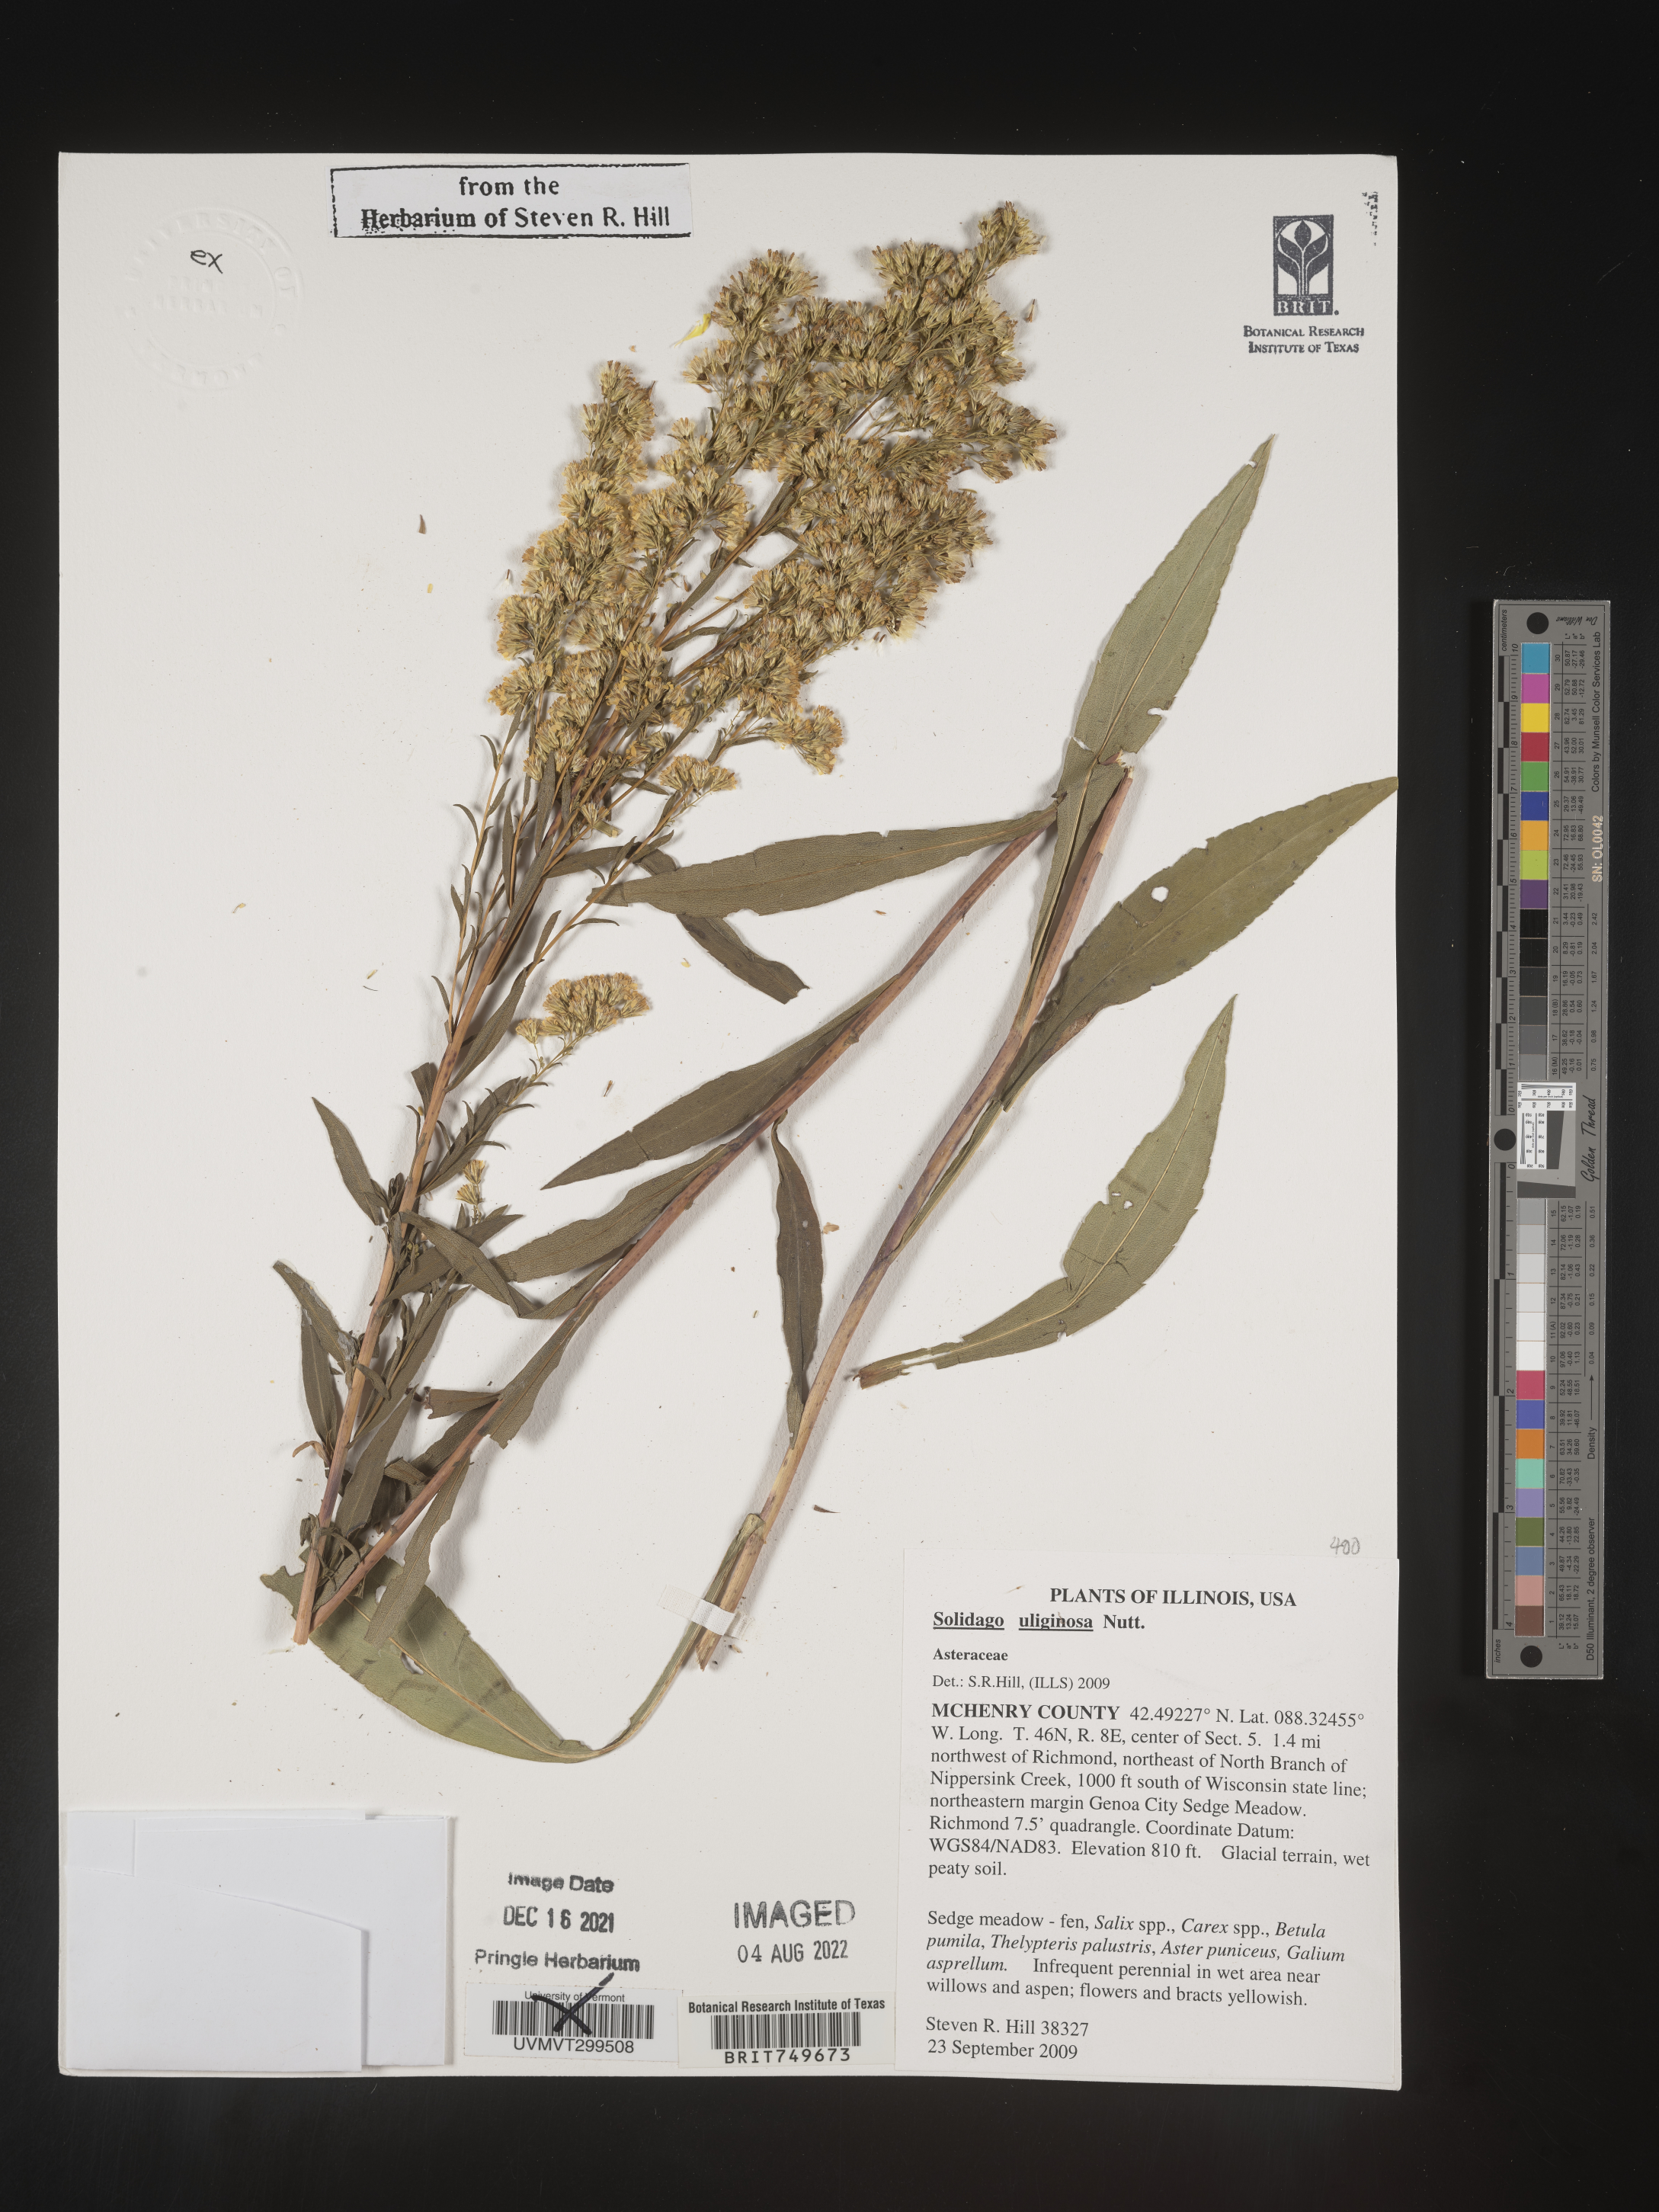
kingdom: Plantae
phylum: Tracheophyta
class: Magnoliopsida
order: Asterales
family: Asteraceae
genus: Solidago
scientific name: Solidago uliginosa
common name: Bog goldenrod
